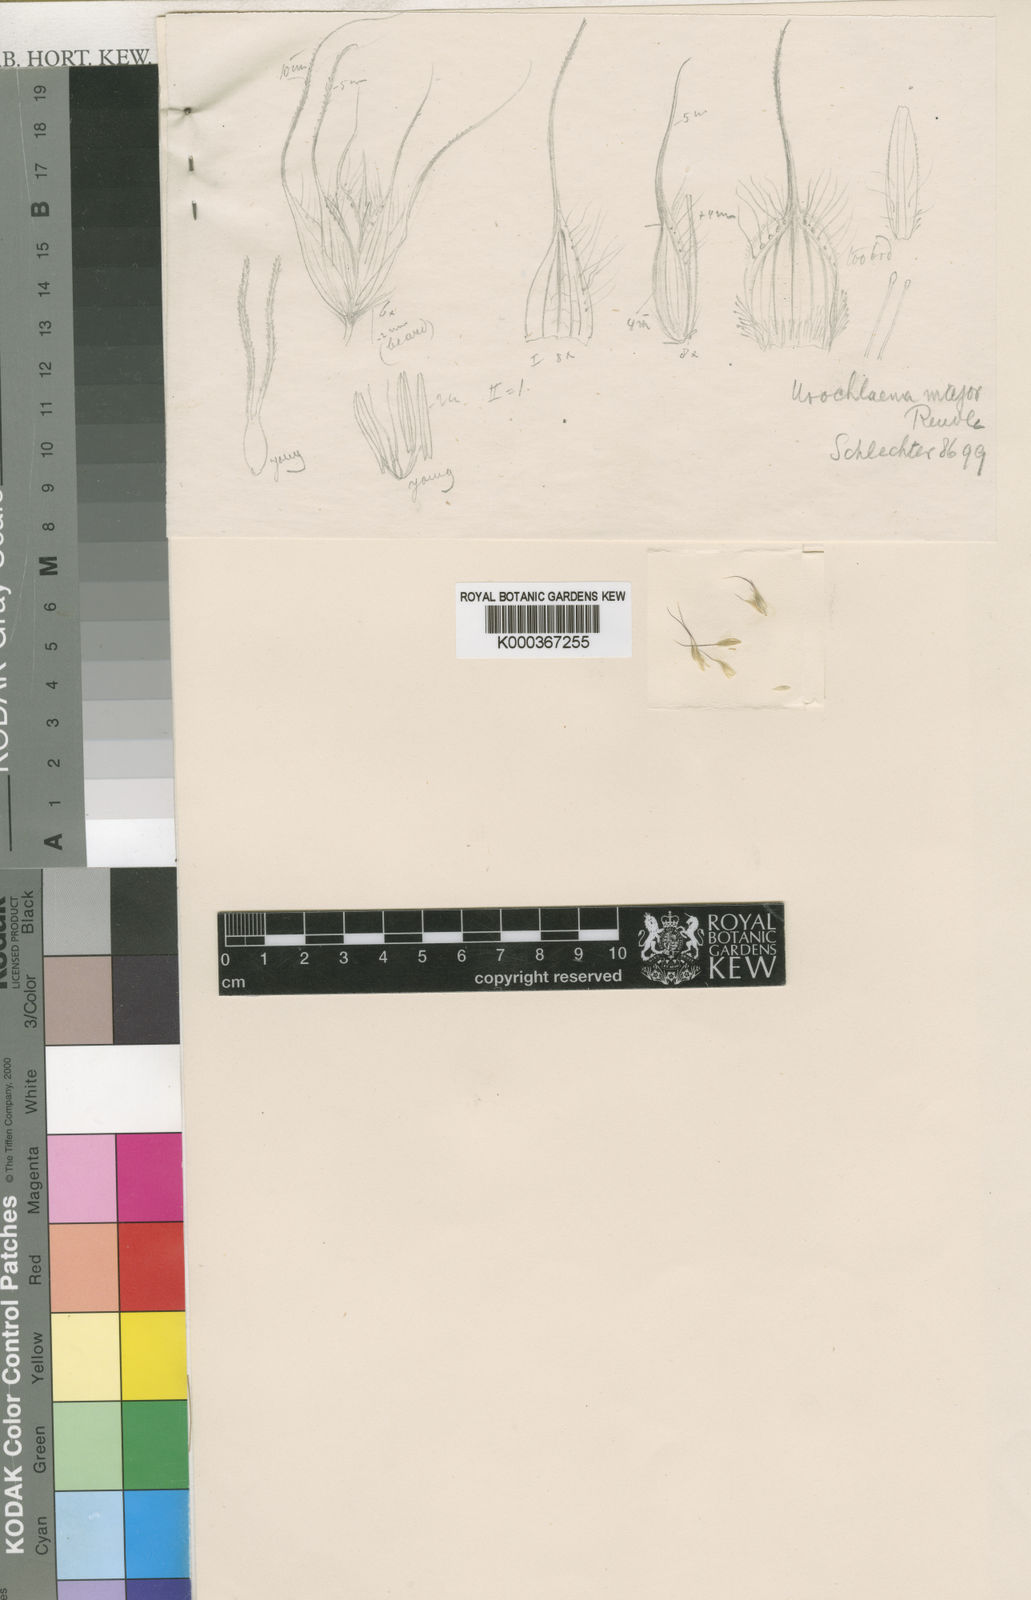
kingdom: Plantae
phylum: Tracheophyta
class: Liliopsida
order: Poales
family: Poaceae
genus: Tribolium
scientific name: Tribolium pusillum
